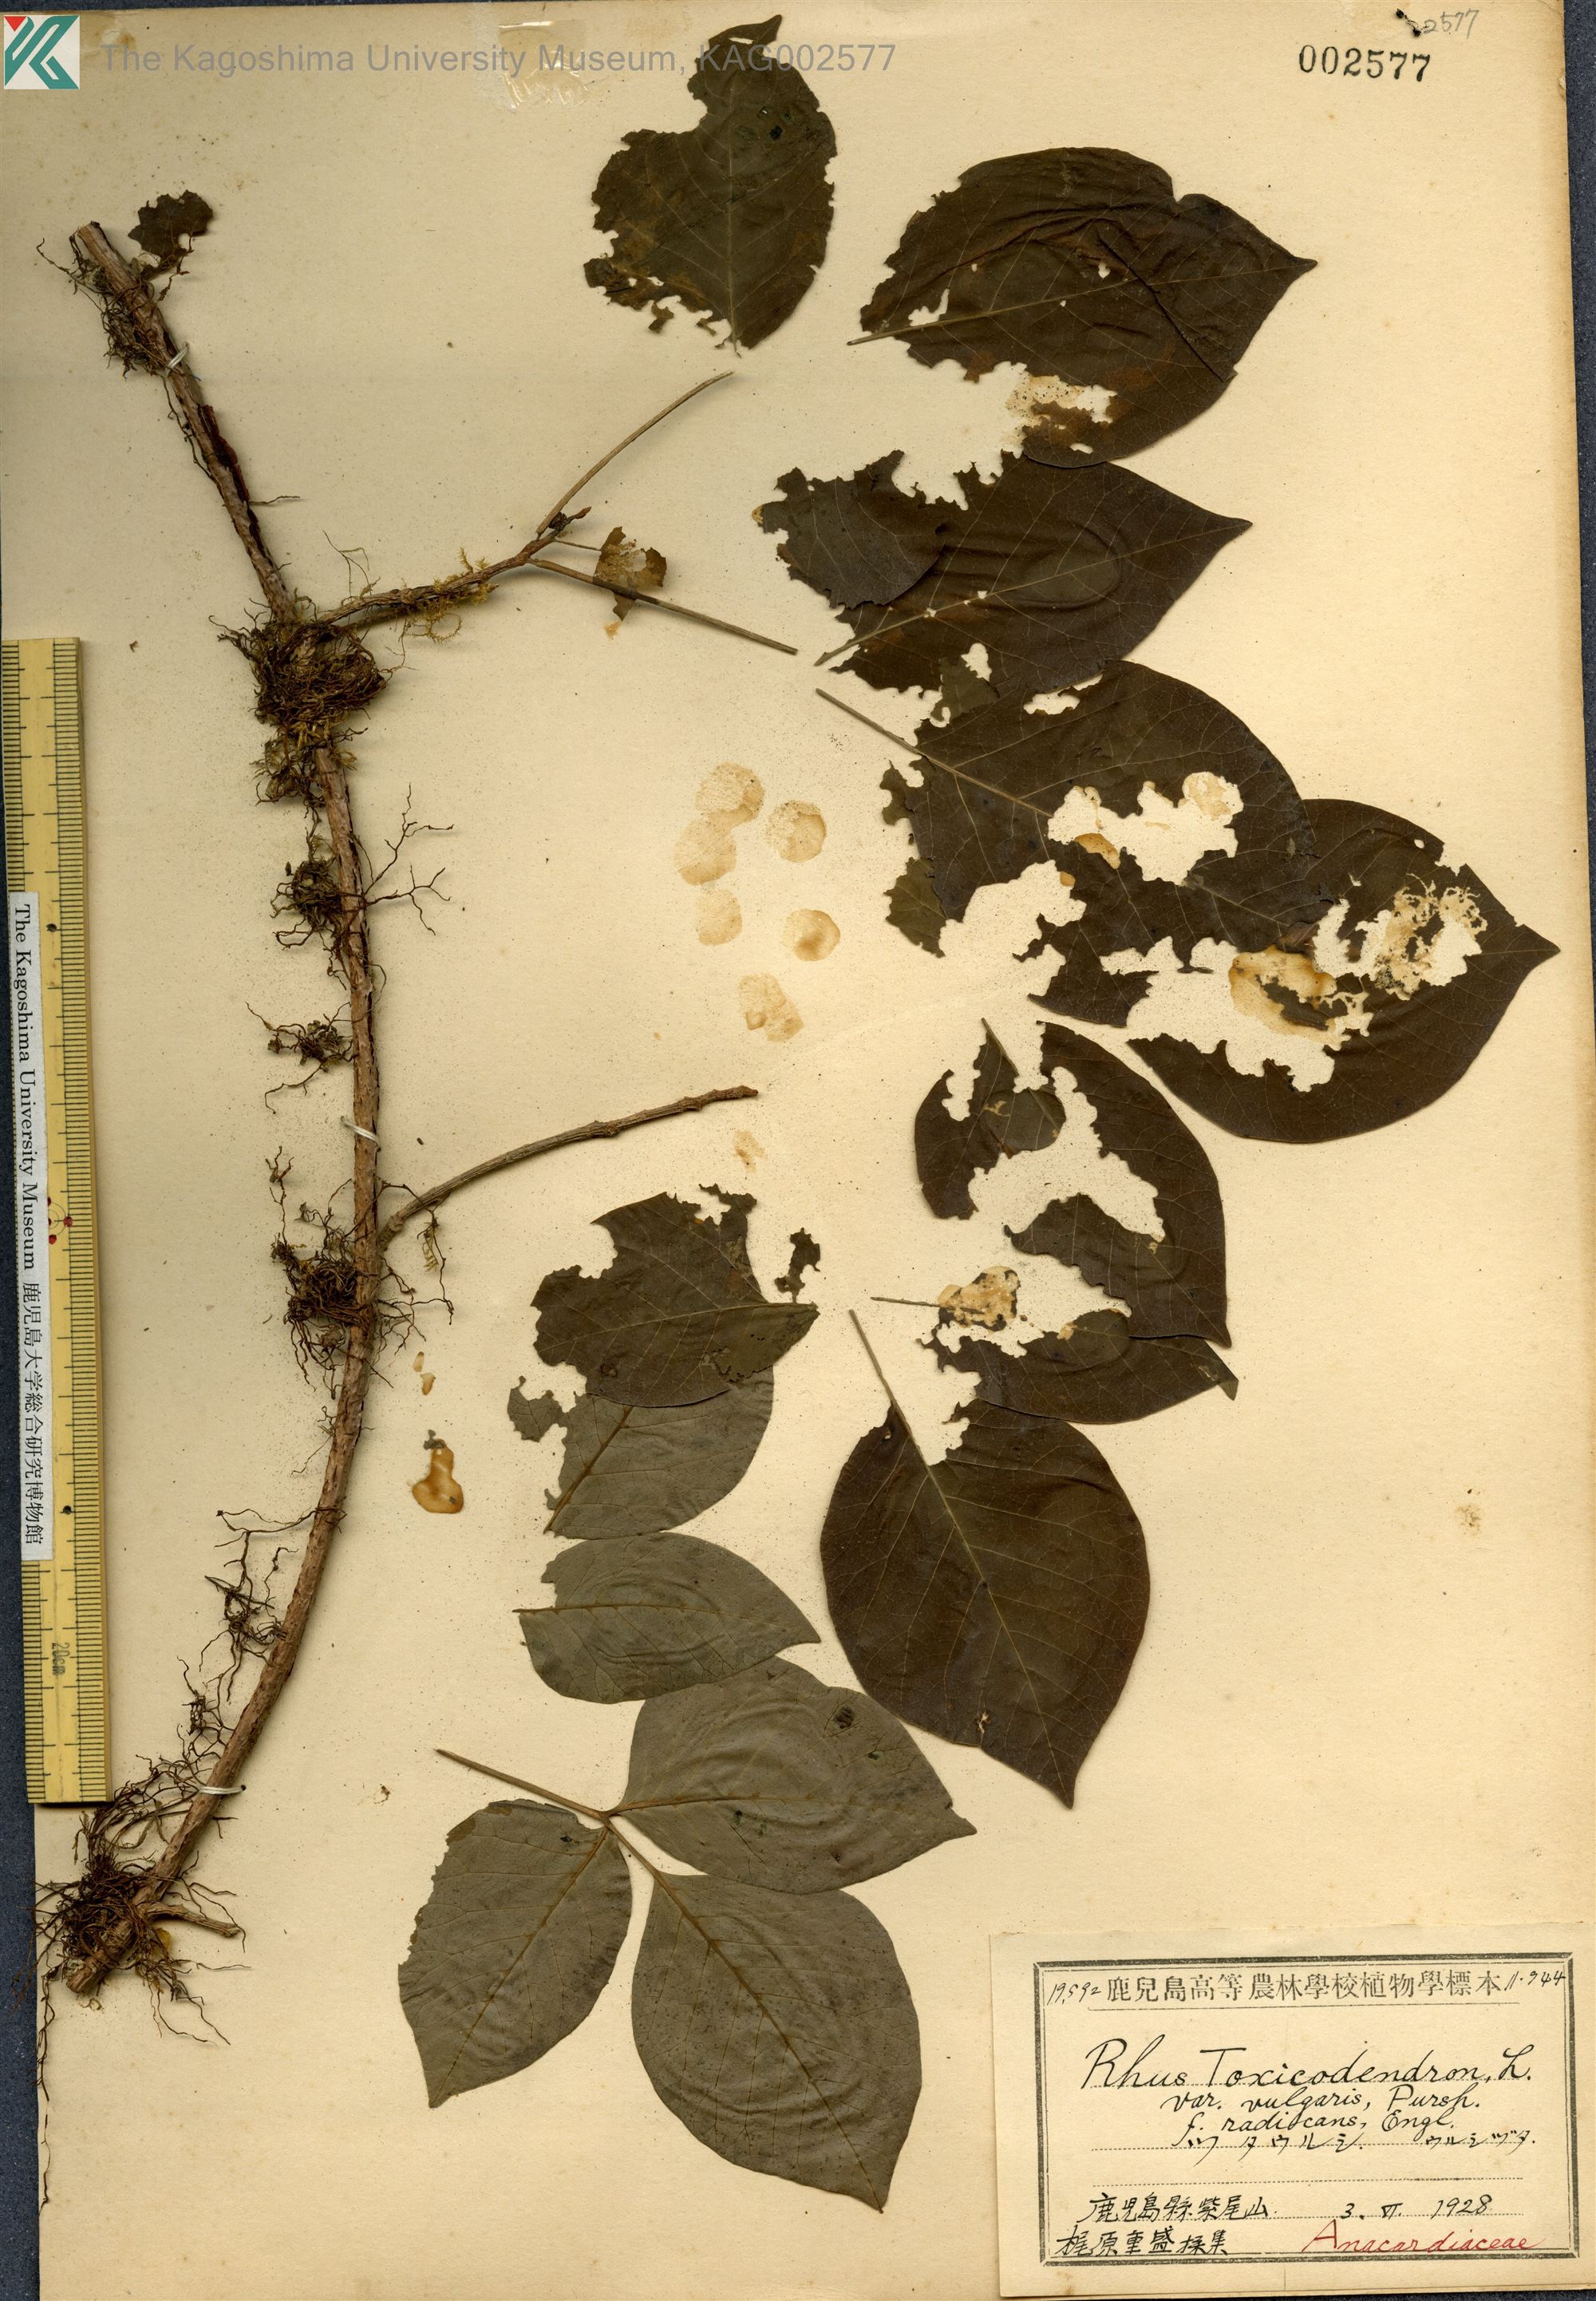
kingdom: Plantae
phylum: Tracheophyta
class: Magnoliopsida
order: Sapindales
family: Anacardiaceae
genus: Toxicodendron
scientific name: Toxicodendron orientale
